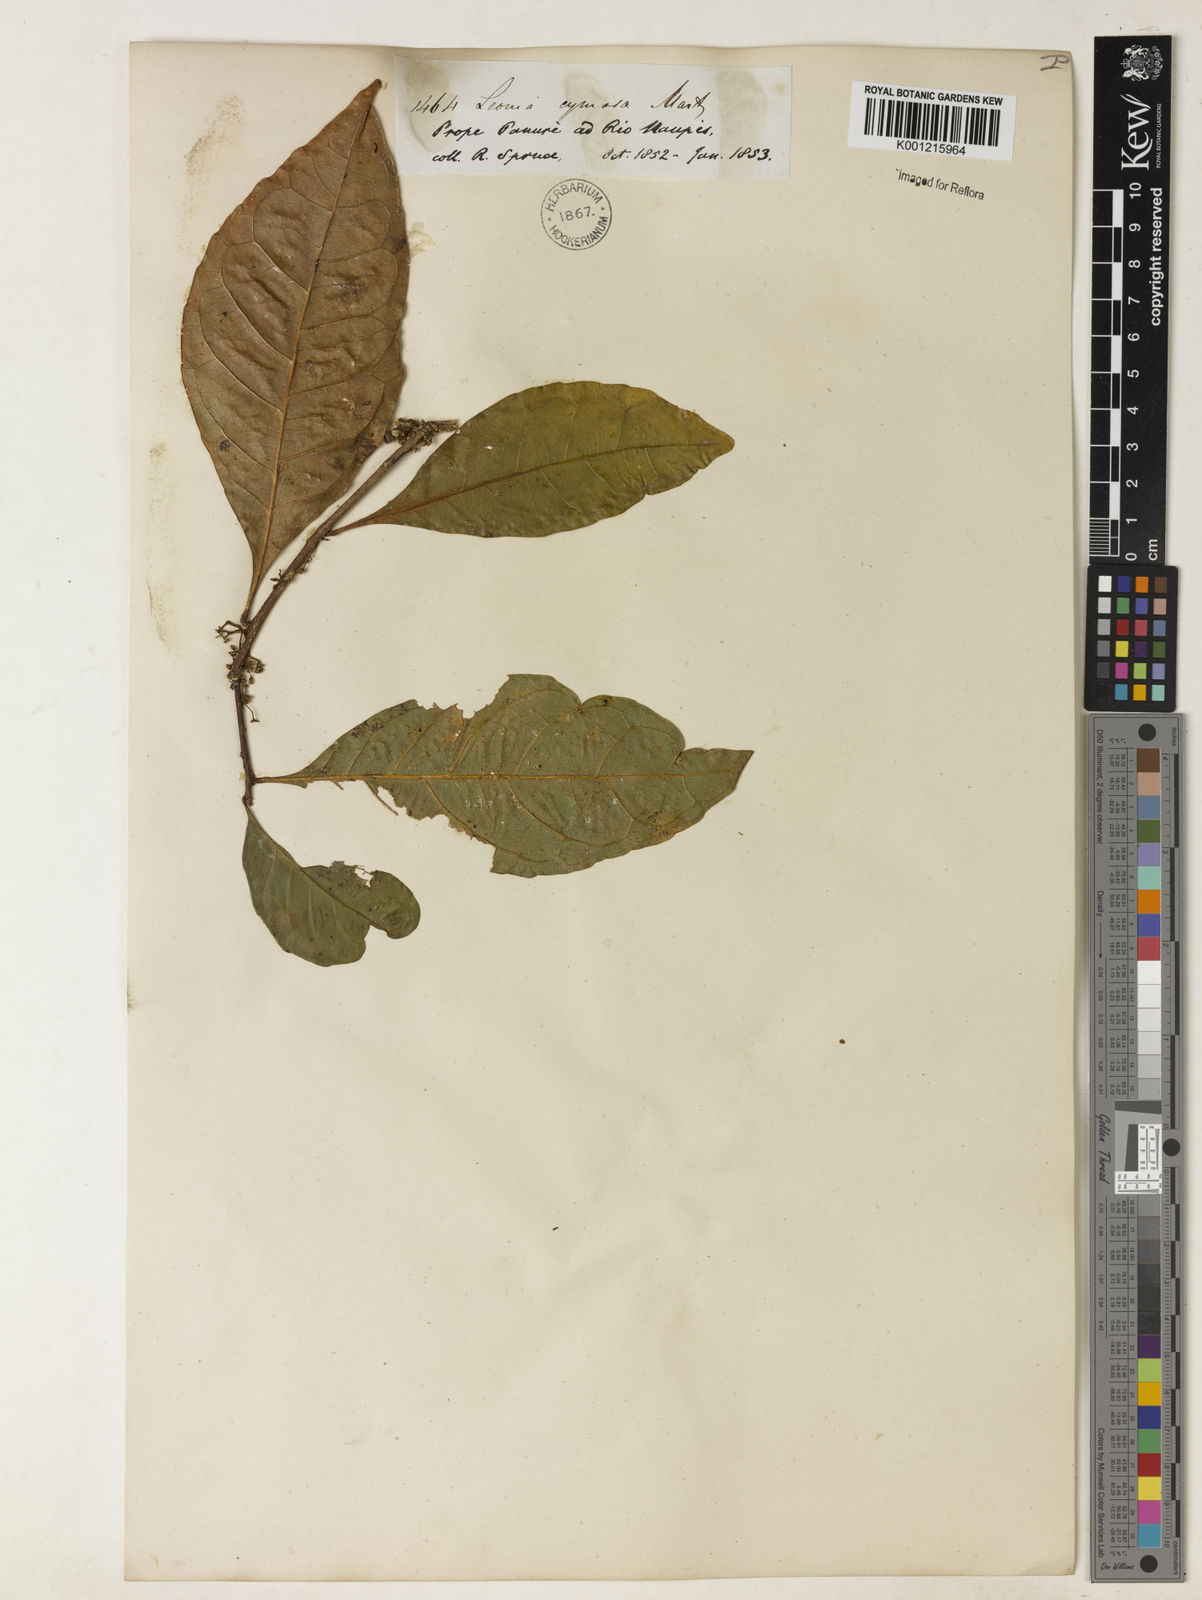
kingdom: Plantae
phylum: Tracheophyta
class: Magnoliopsida
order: Malpighiales
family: Violaceae
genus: Leonia
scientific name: Leonia cymosa
